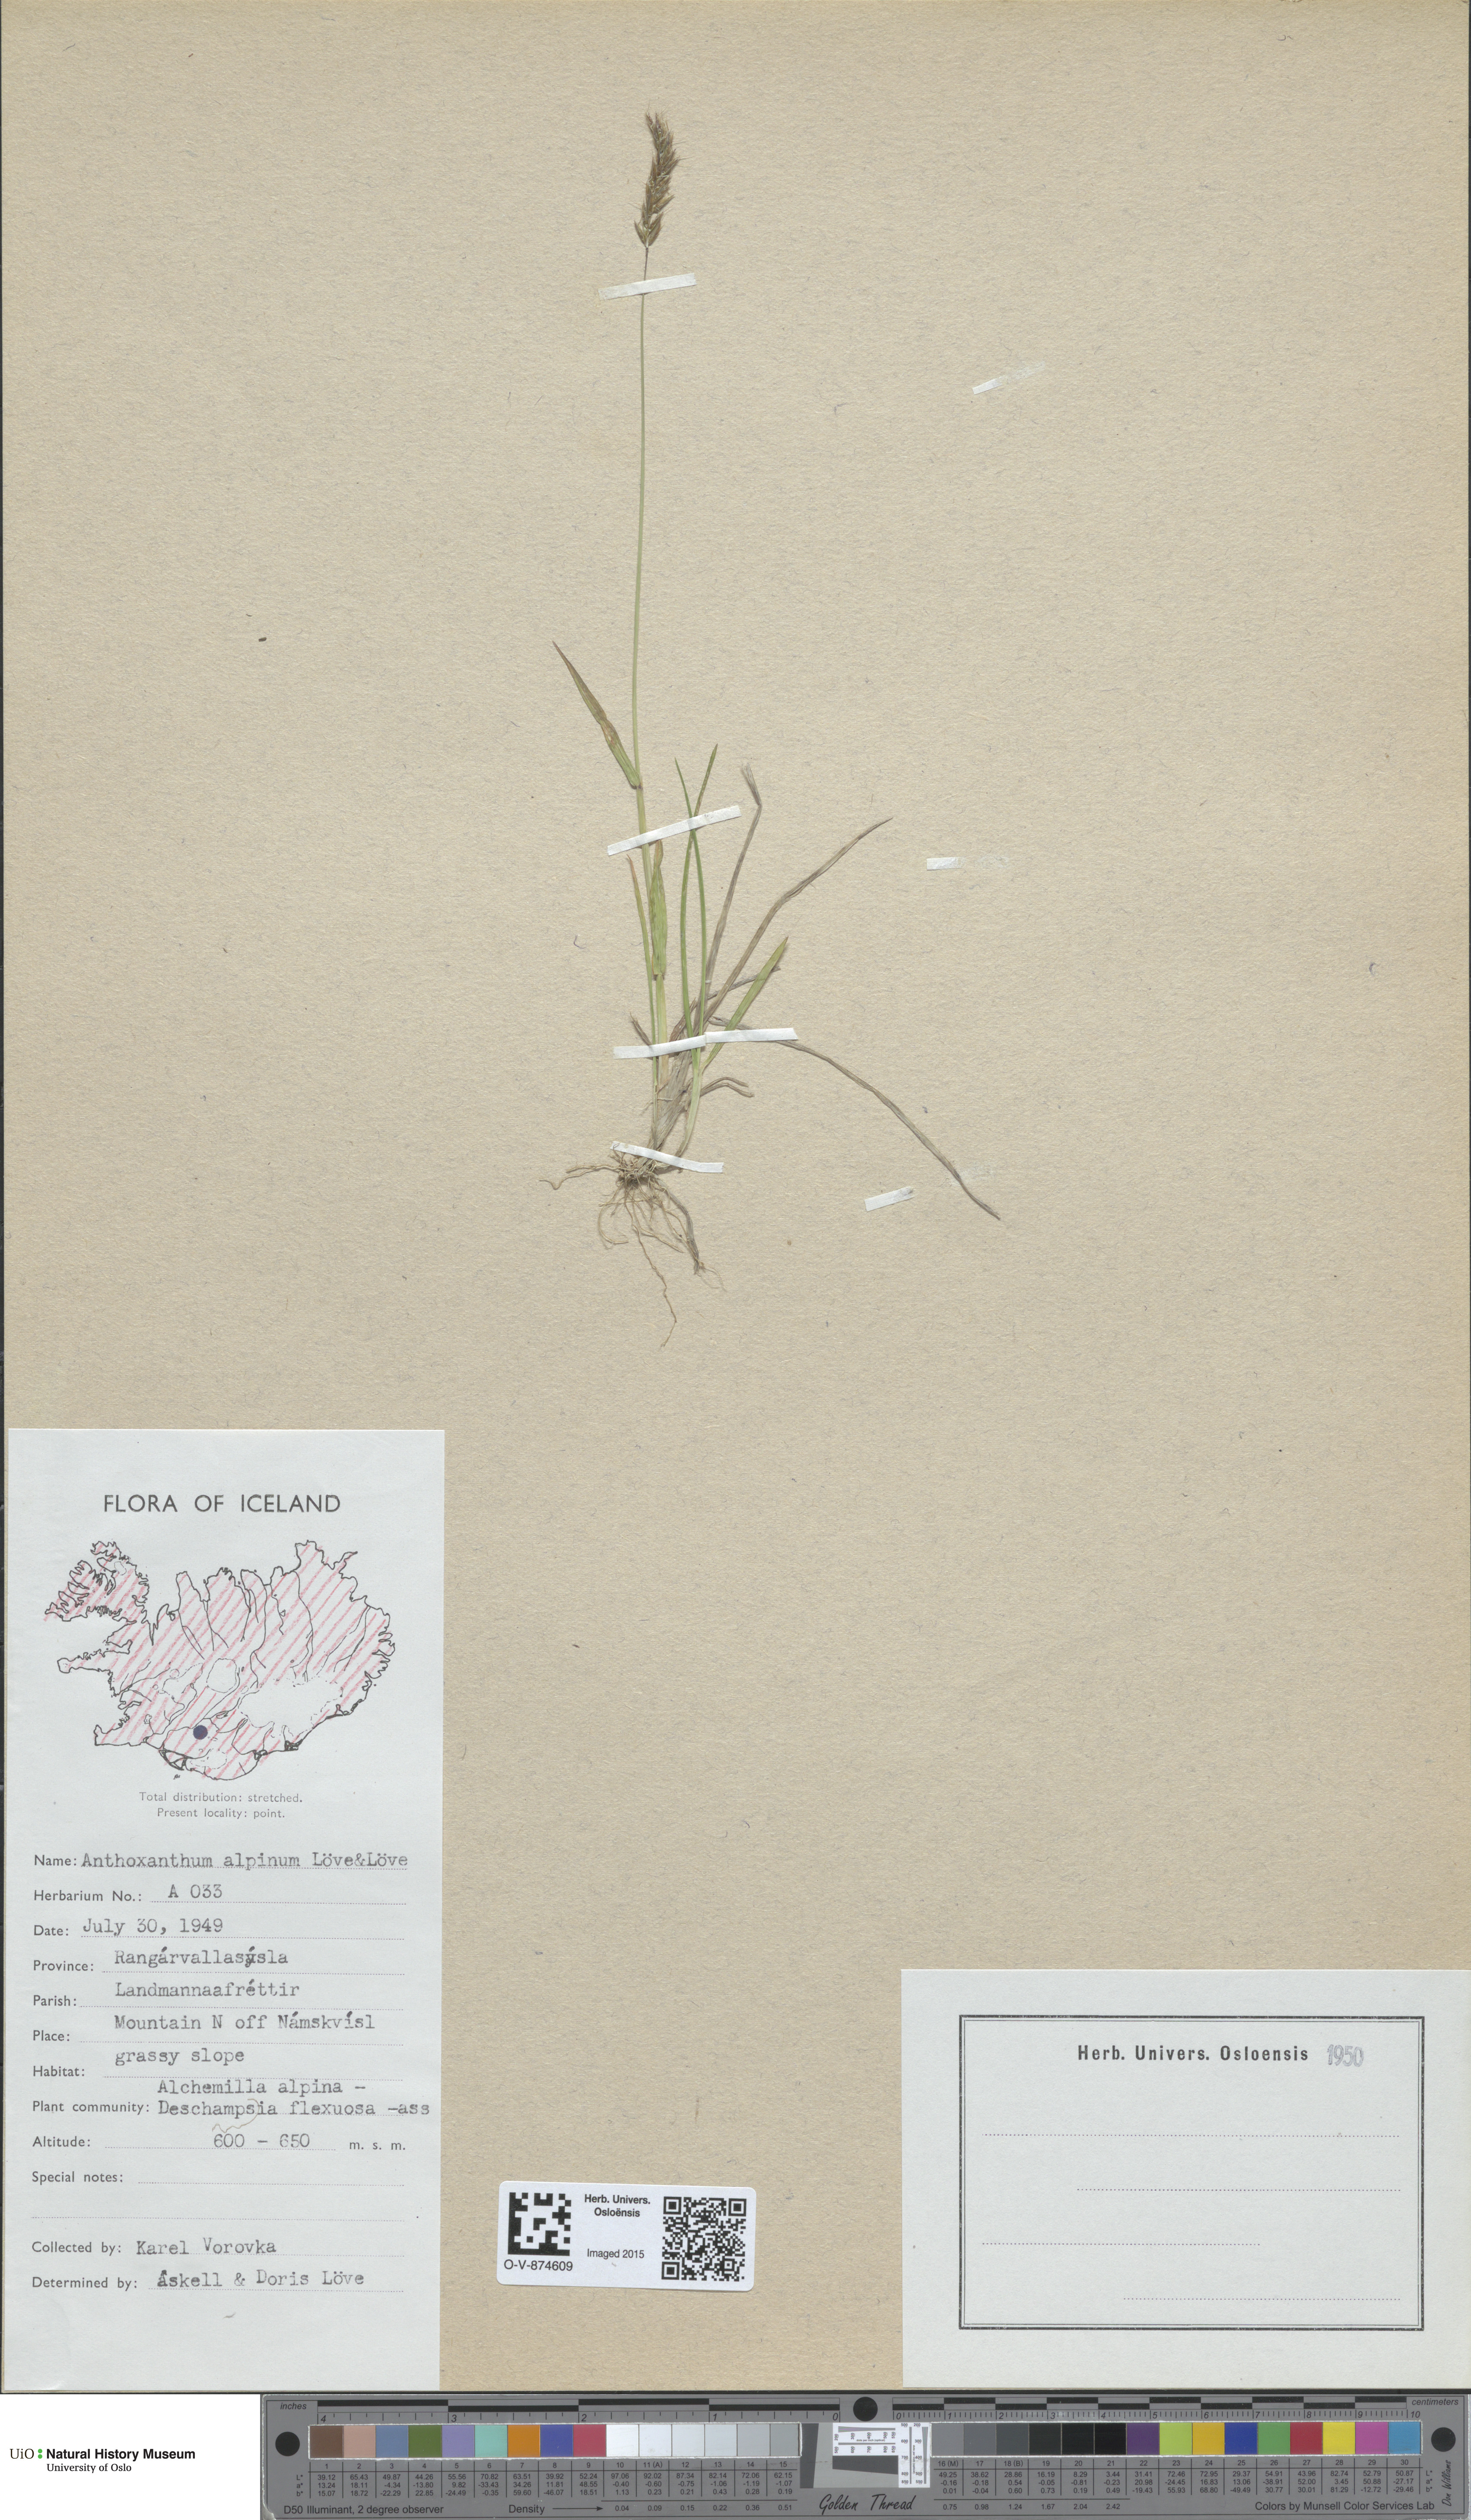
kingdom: Plantae
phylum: Tracheophyta
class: Liliopsida
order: Poales
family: Poaceae
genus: Anthoxanthum
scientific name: Anthoxanthum nipponicum
